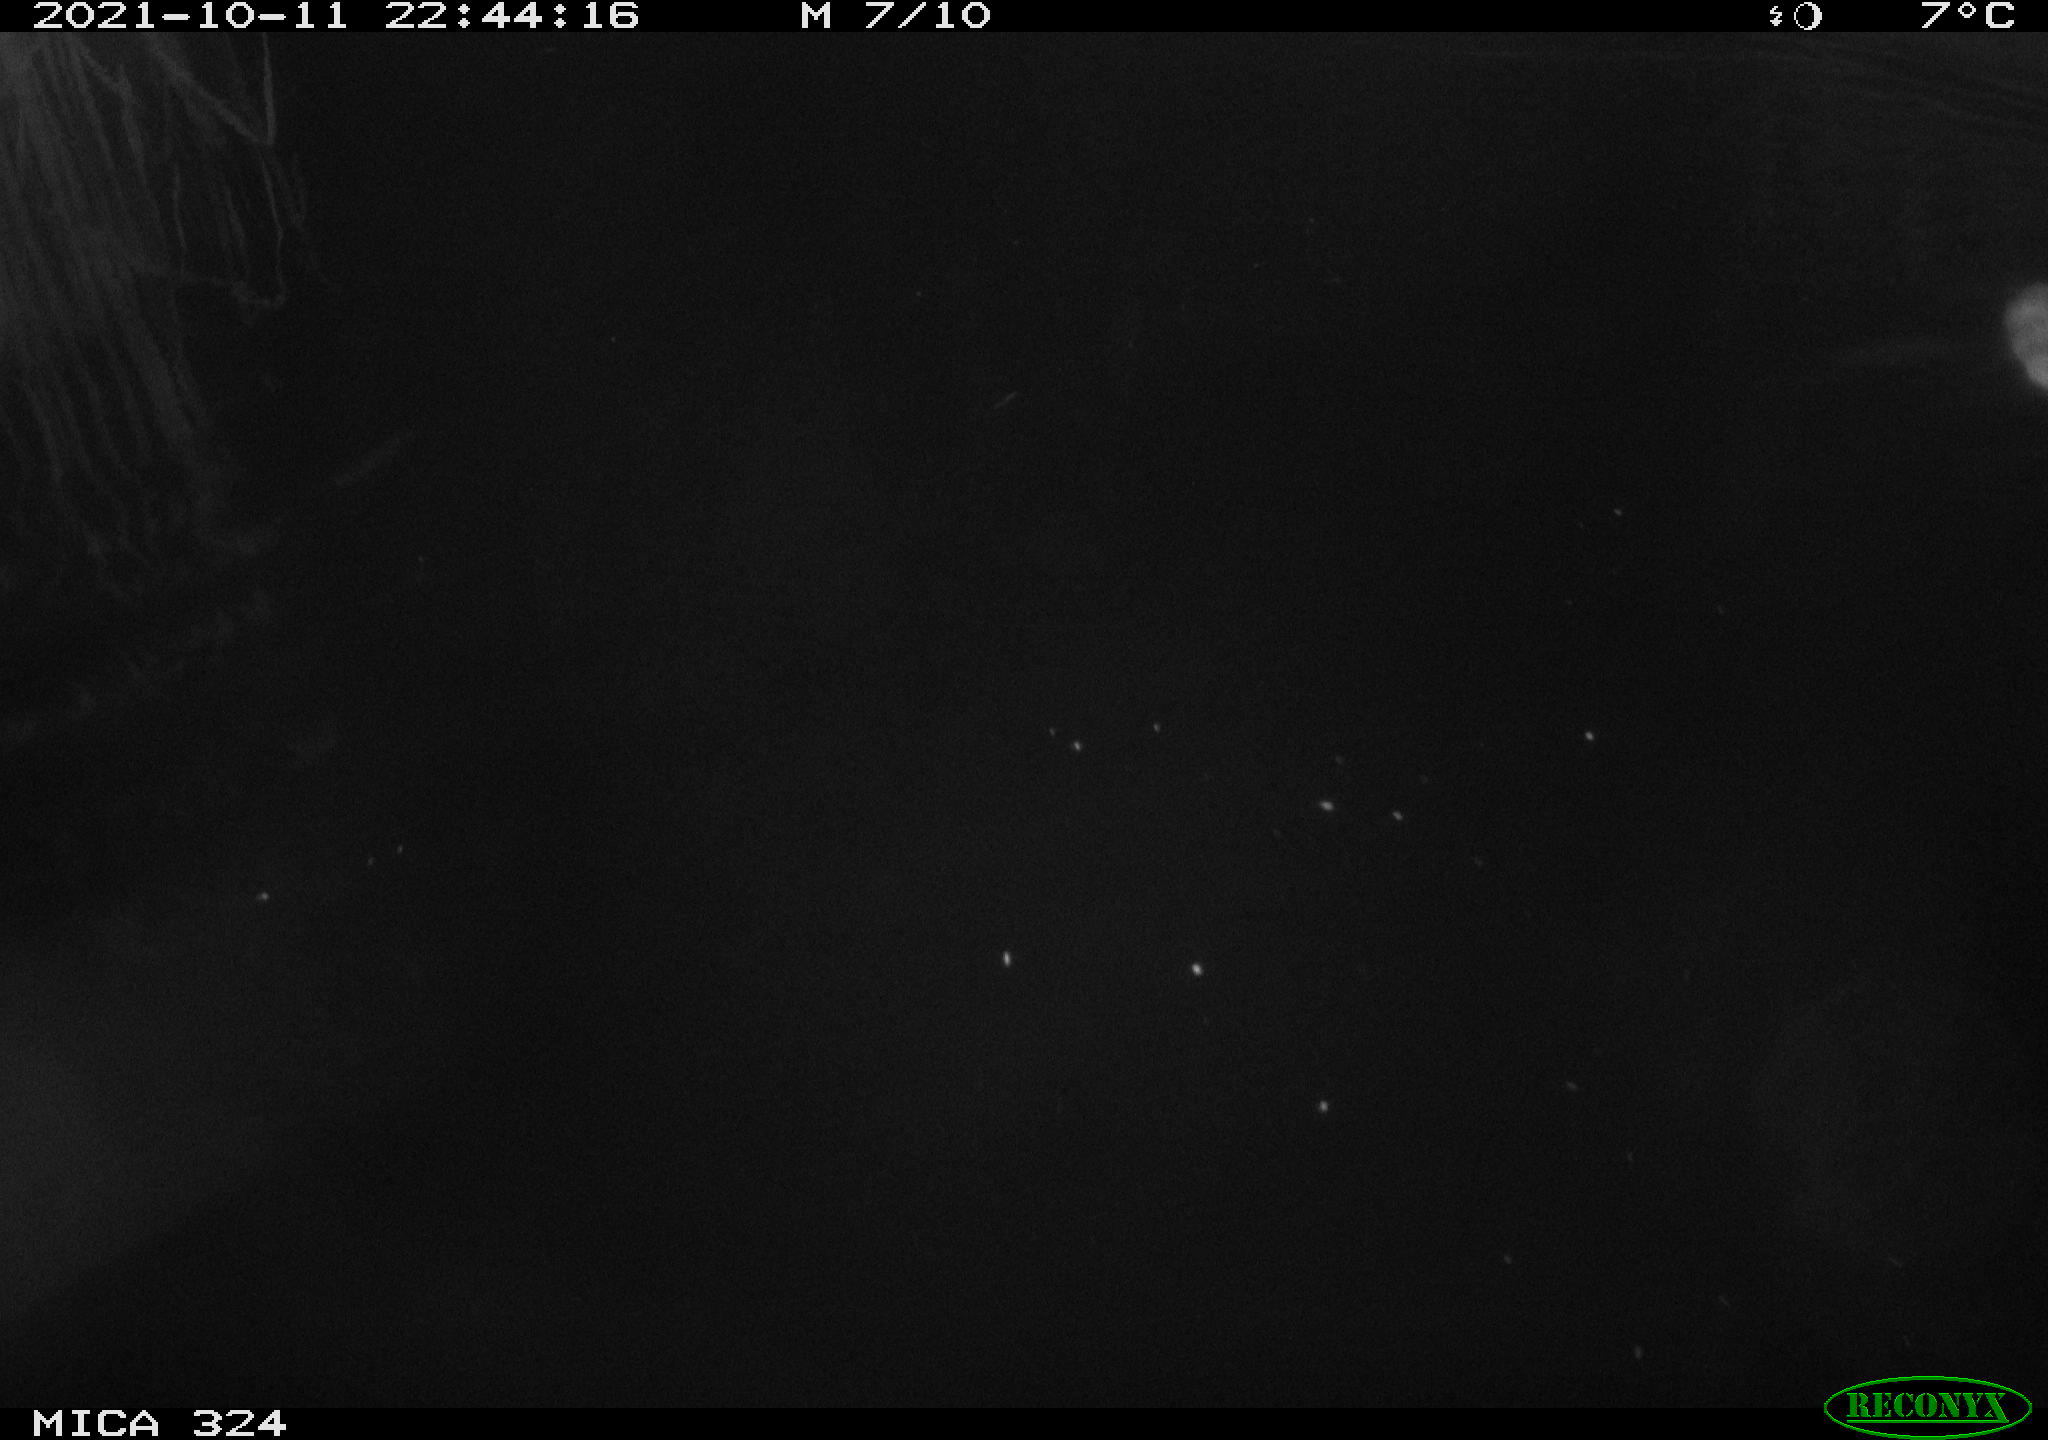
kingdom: Animalia
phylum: Chordata
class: Mammalia
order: Rodentia
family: Cricetidae
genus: Ondatra
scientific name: Ondatra zibethicus
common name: Muskrat
